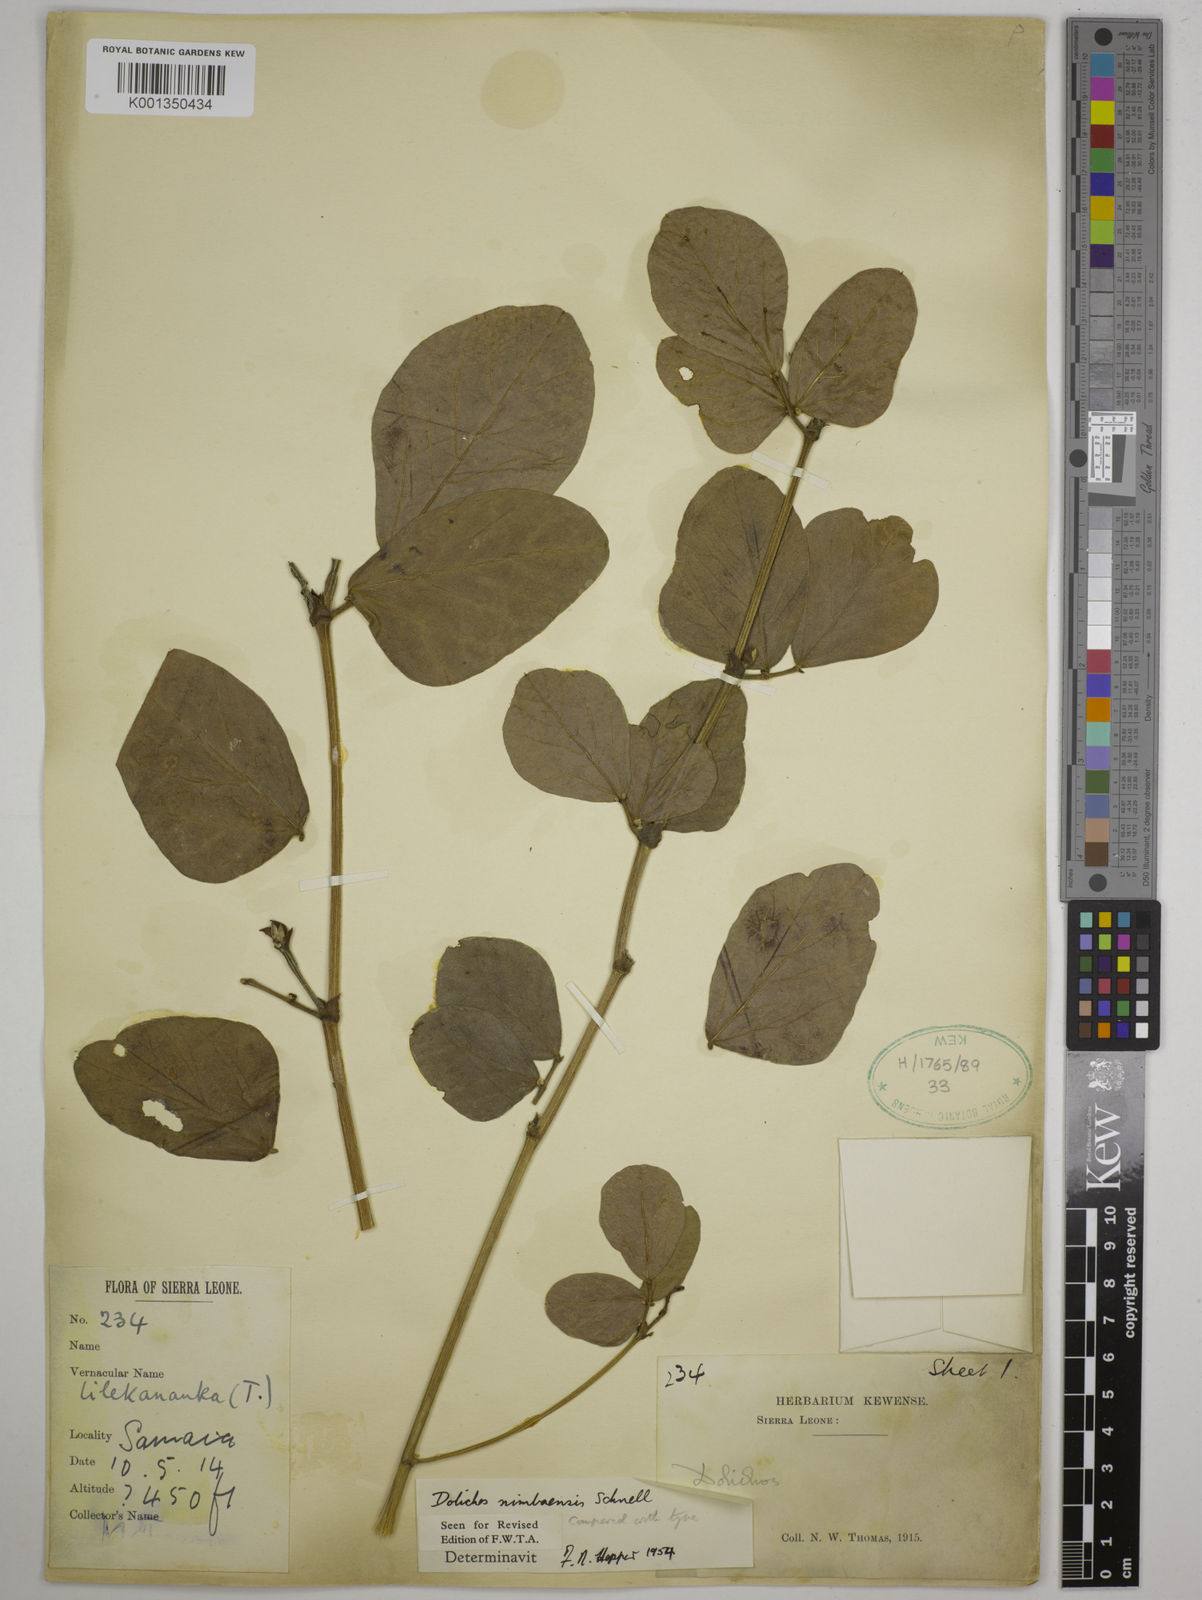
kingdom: Plantae
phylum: Tracheophyta
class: Magnoliopsida
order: Fabales
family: Fabaceae
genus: Dolichos
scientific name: Dolichos nimbaensis
